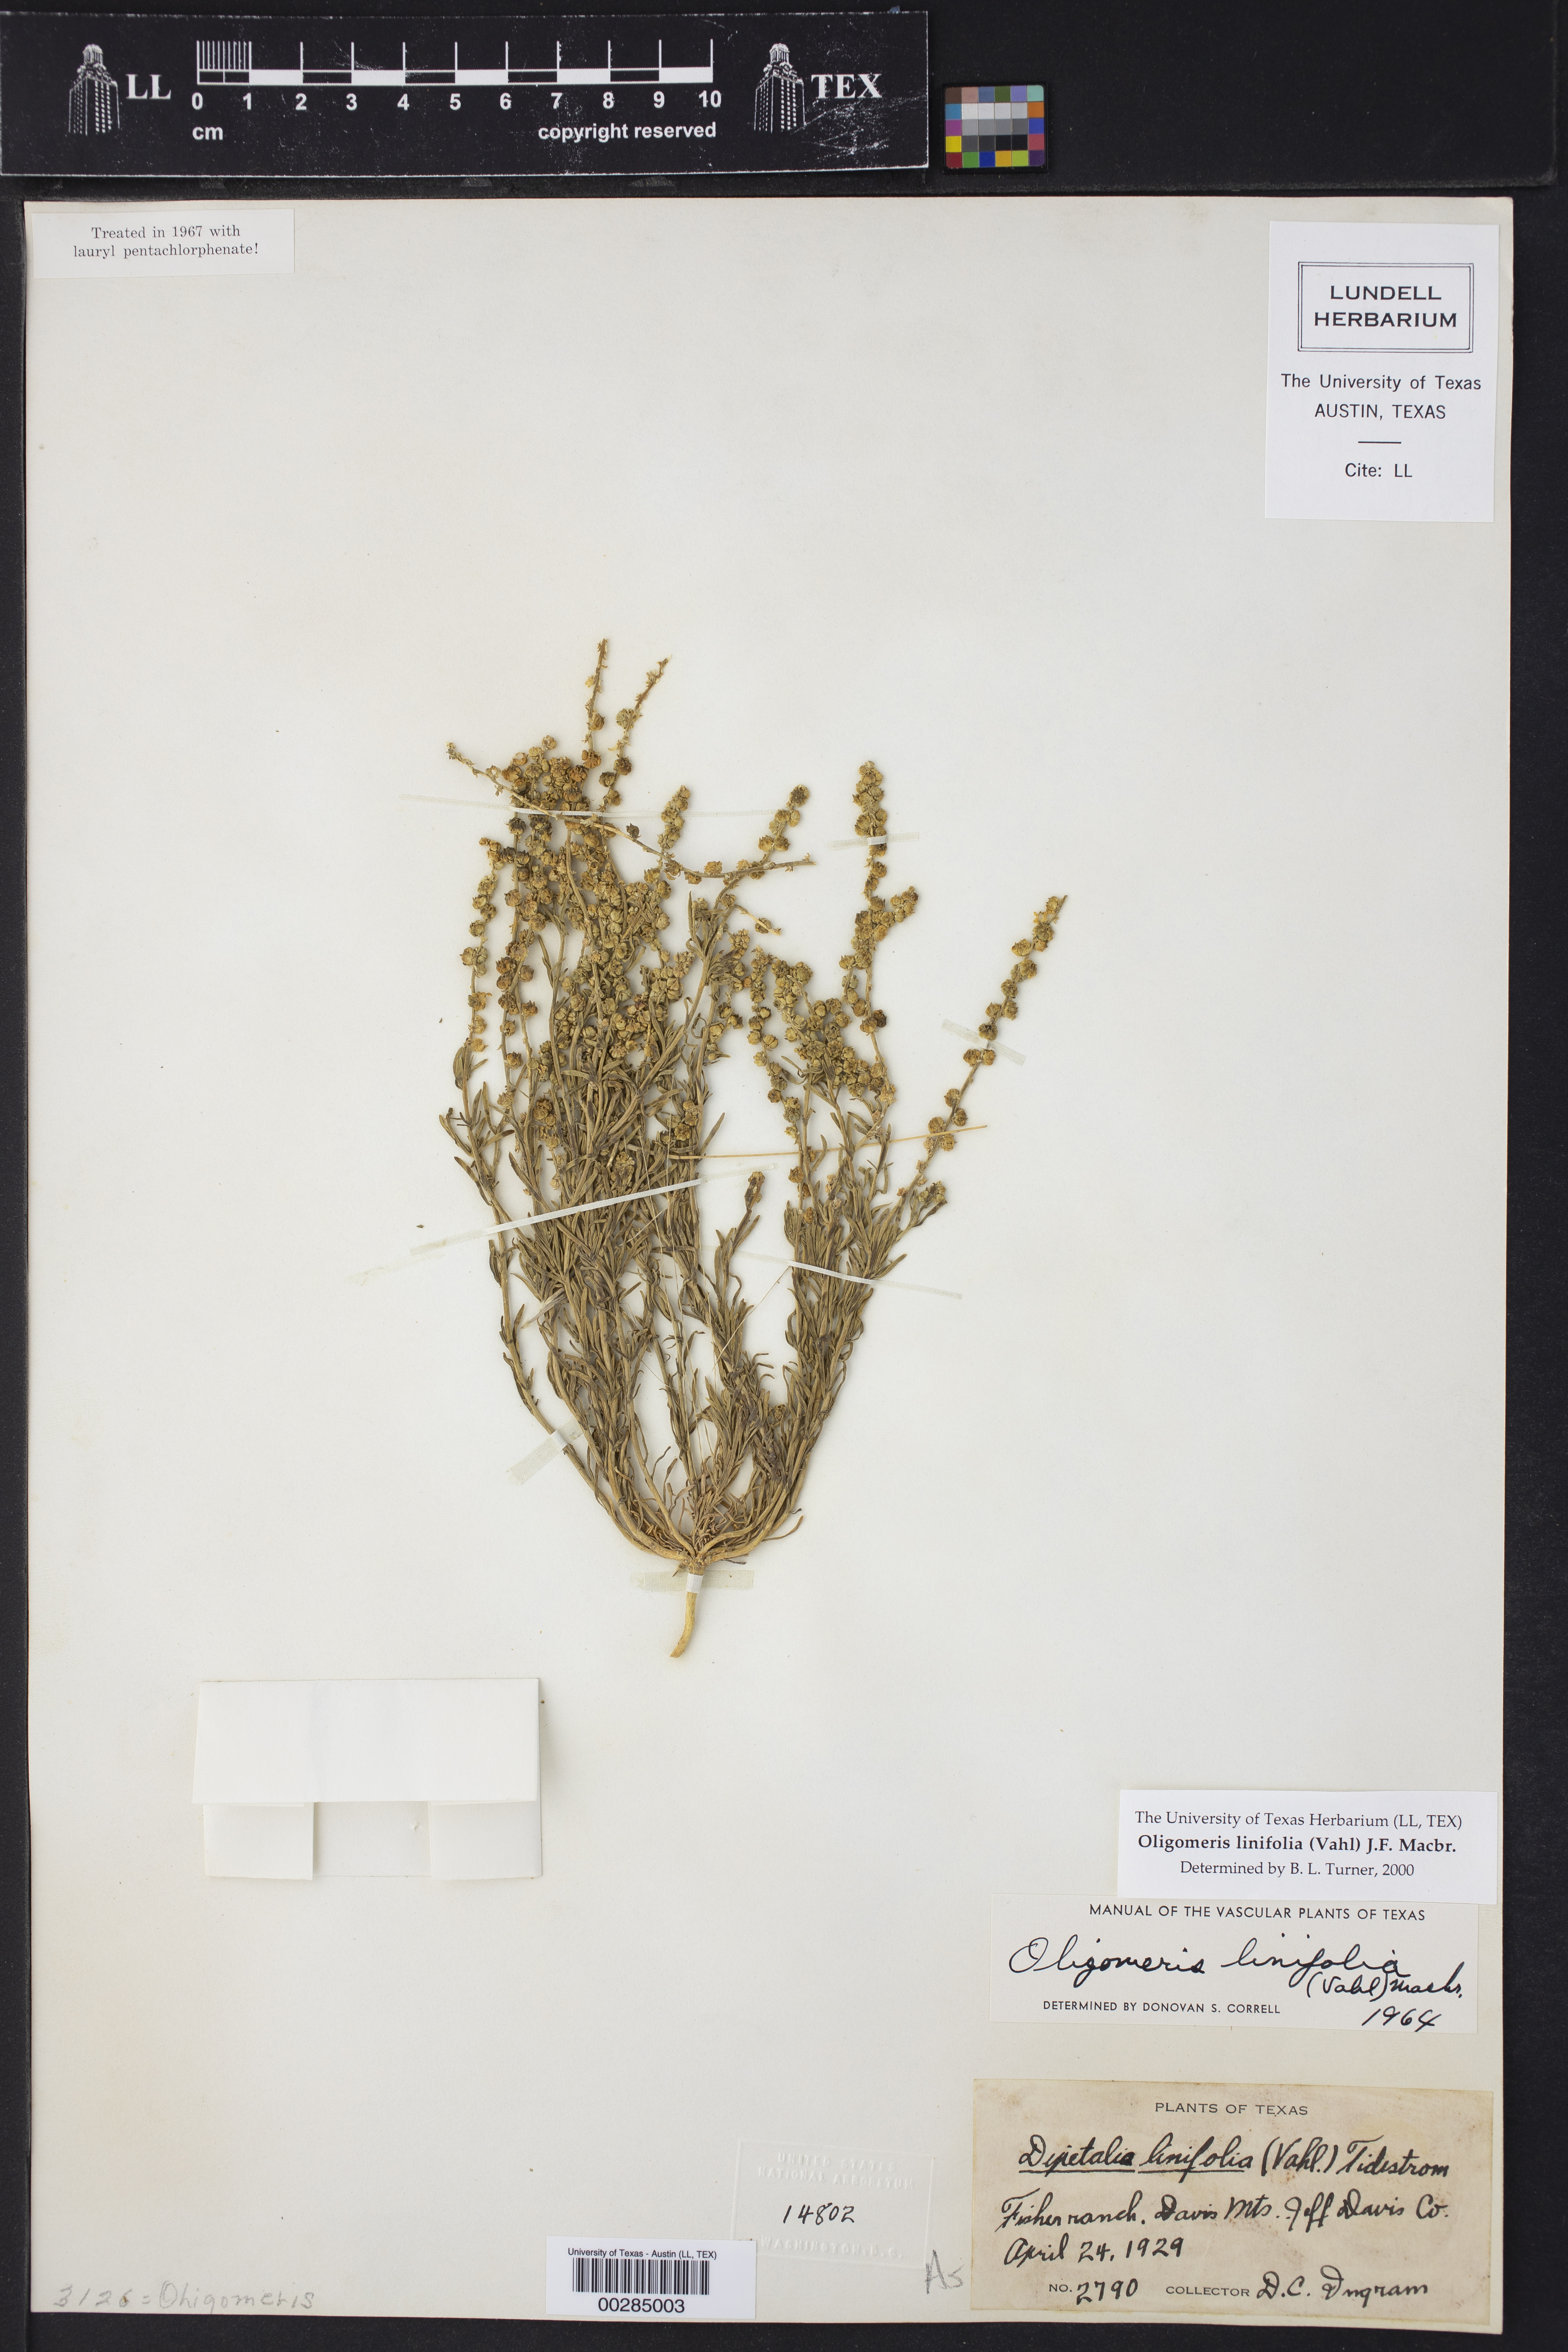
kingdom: Plantae
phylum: Tracheophyta
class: Magnoliopsida
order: Brassicales
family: Resedaceae
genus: Oligomeris
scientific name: Oligomeris linifolia
